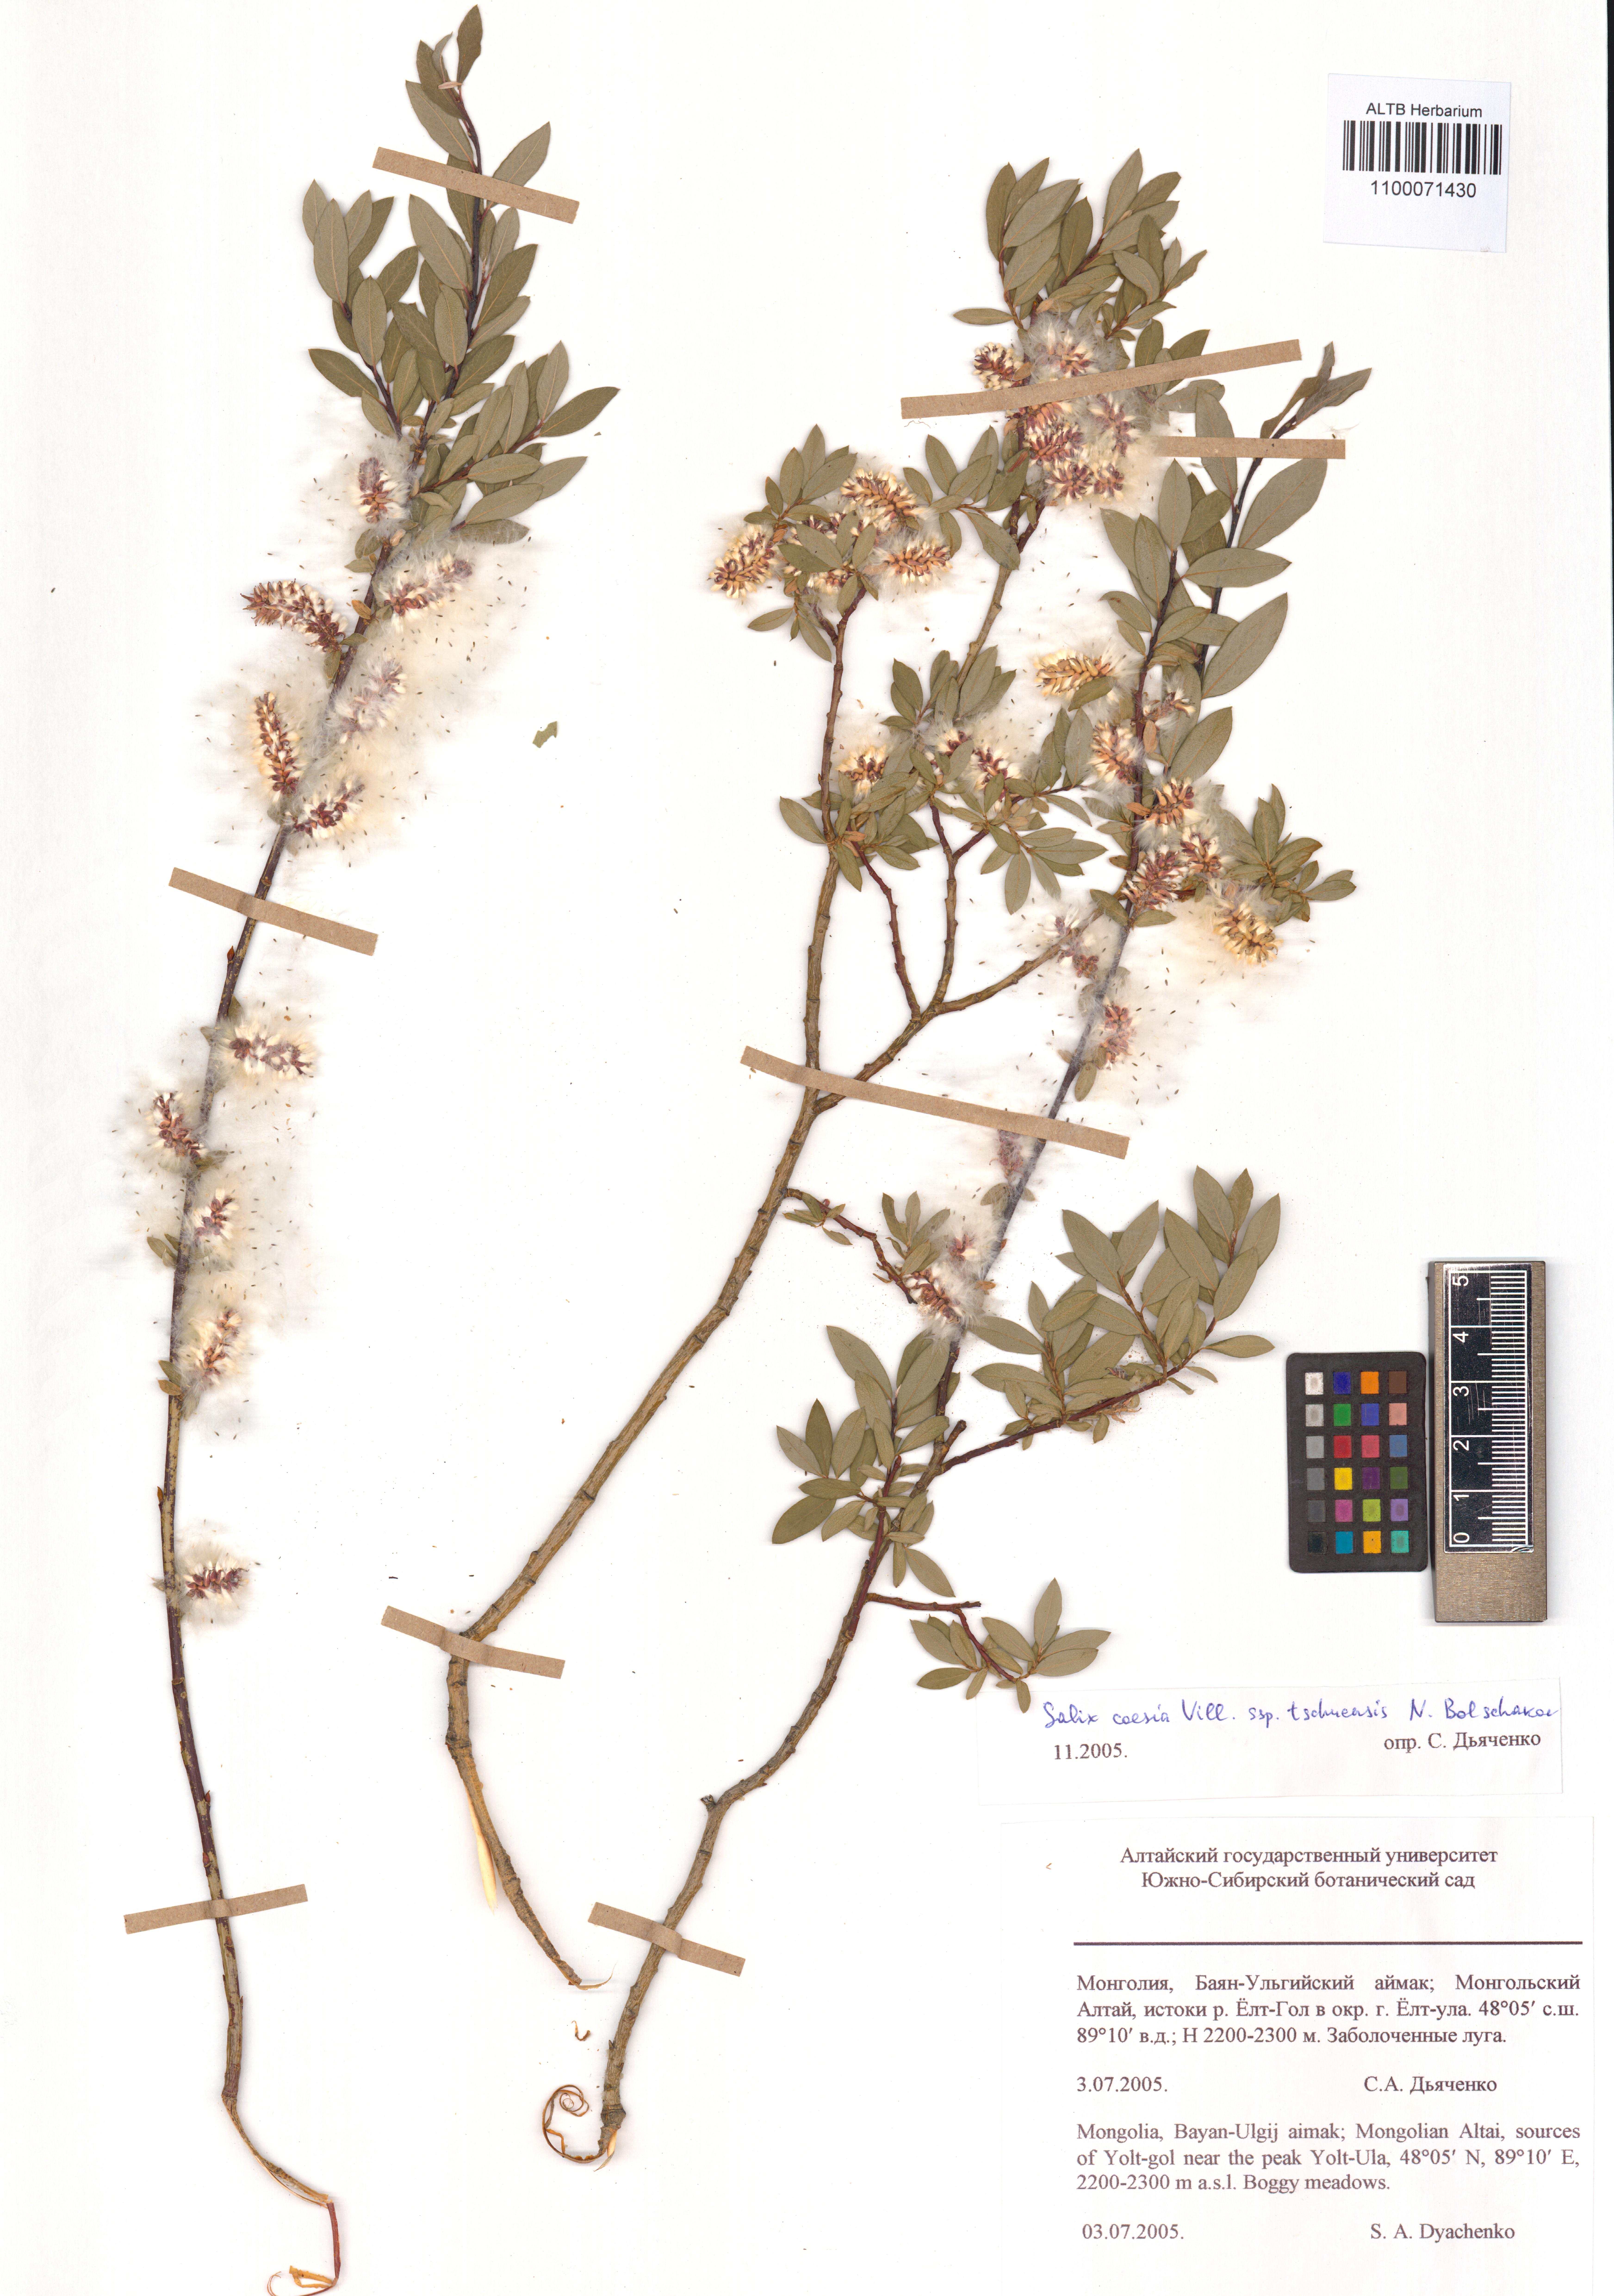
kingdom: Plantae
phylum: Tracheophyta
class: Magnoliopsida
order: Malpighiales
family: Salicaceae
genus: Salix
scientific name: Salix caesia
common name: Blue willow
